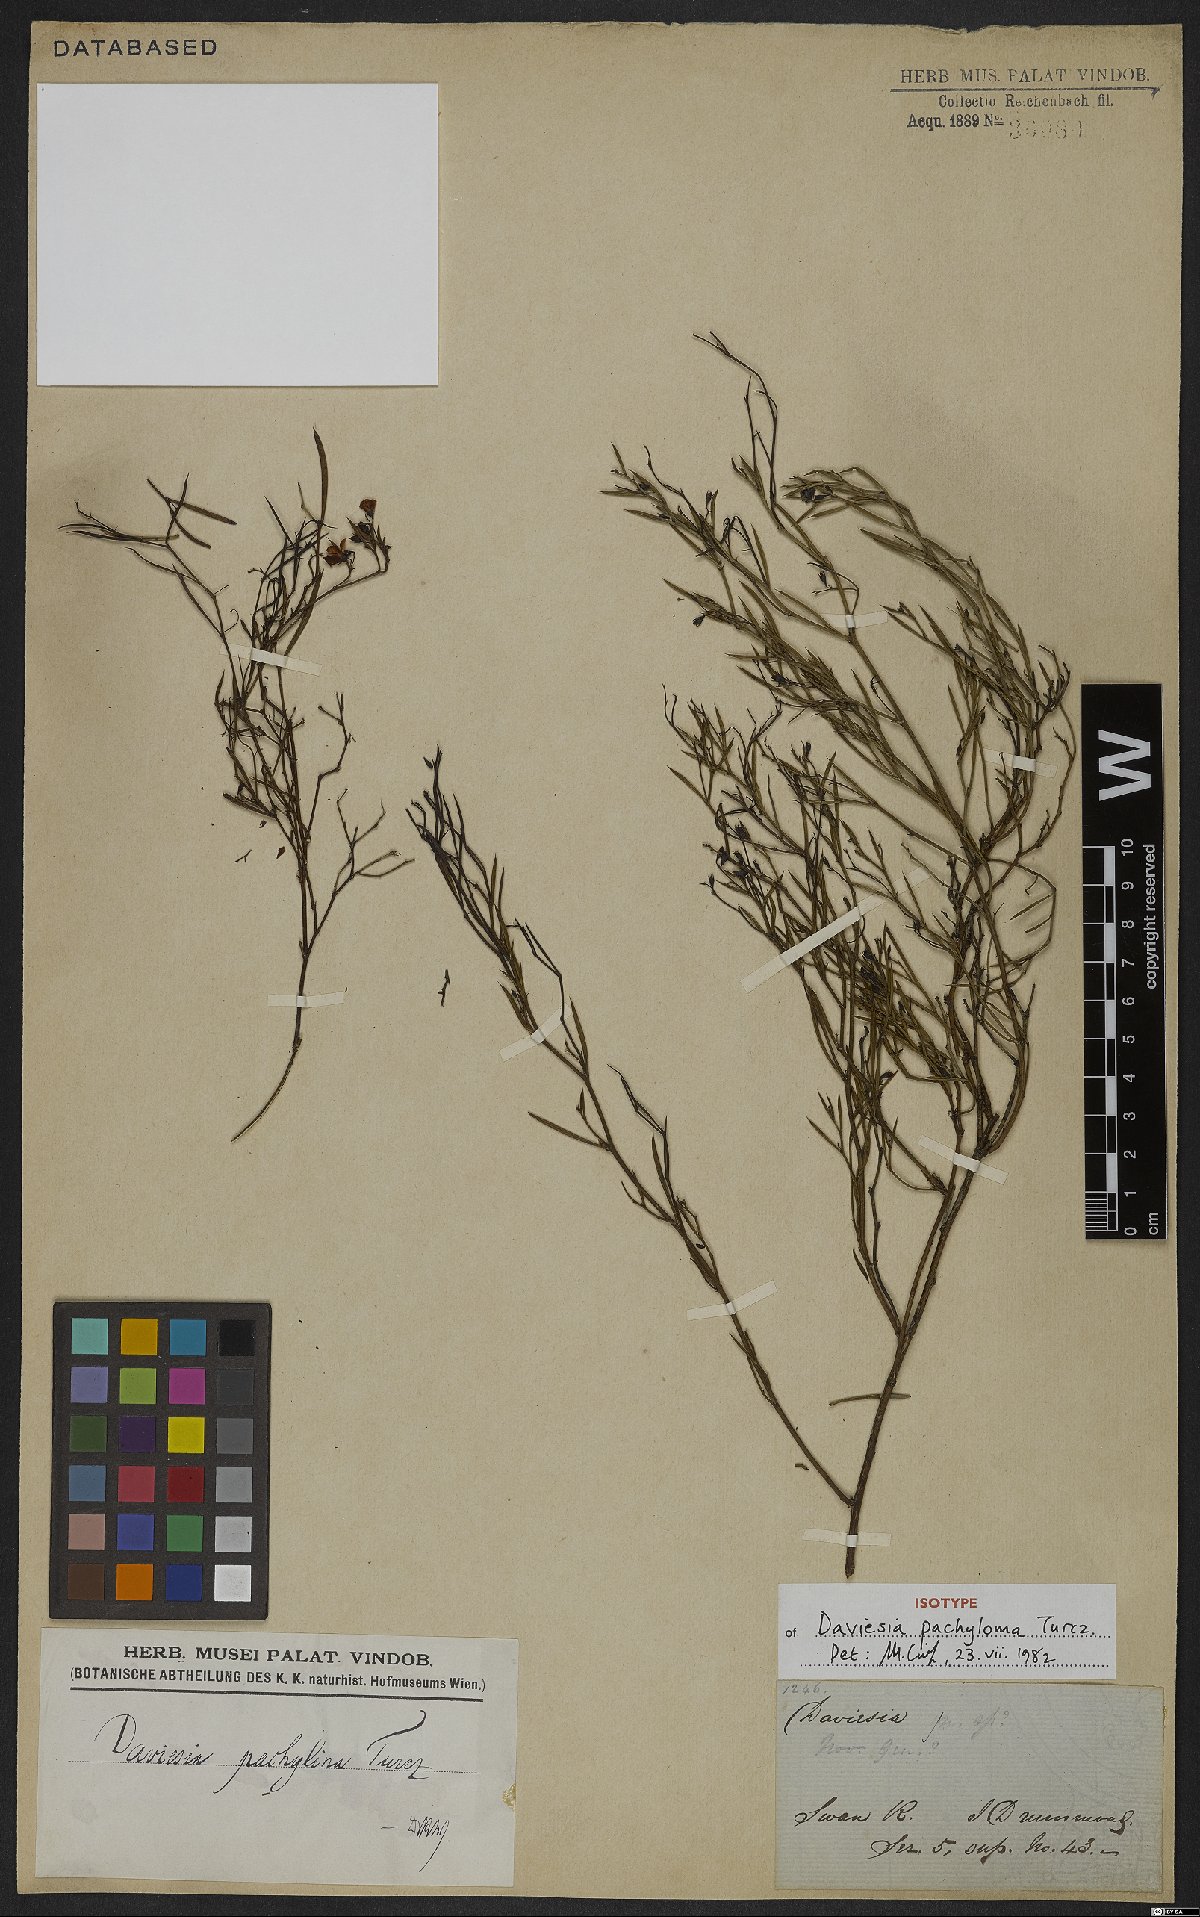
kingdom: Plantae
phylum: Tracheophyta
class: Magnoliopsida
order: Fabales
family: Fabaceae
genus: Daviesia
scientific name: Daviesia pachyloma
